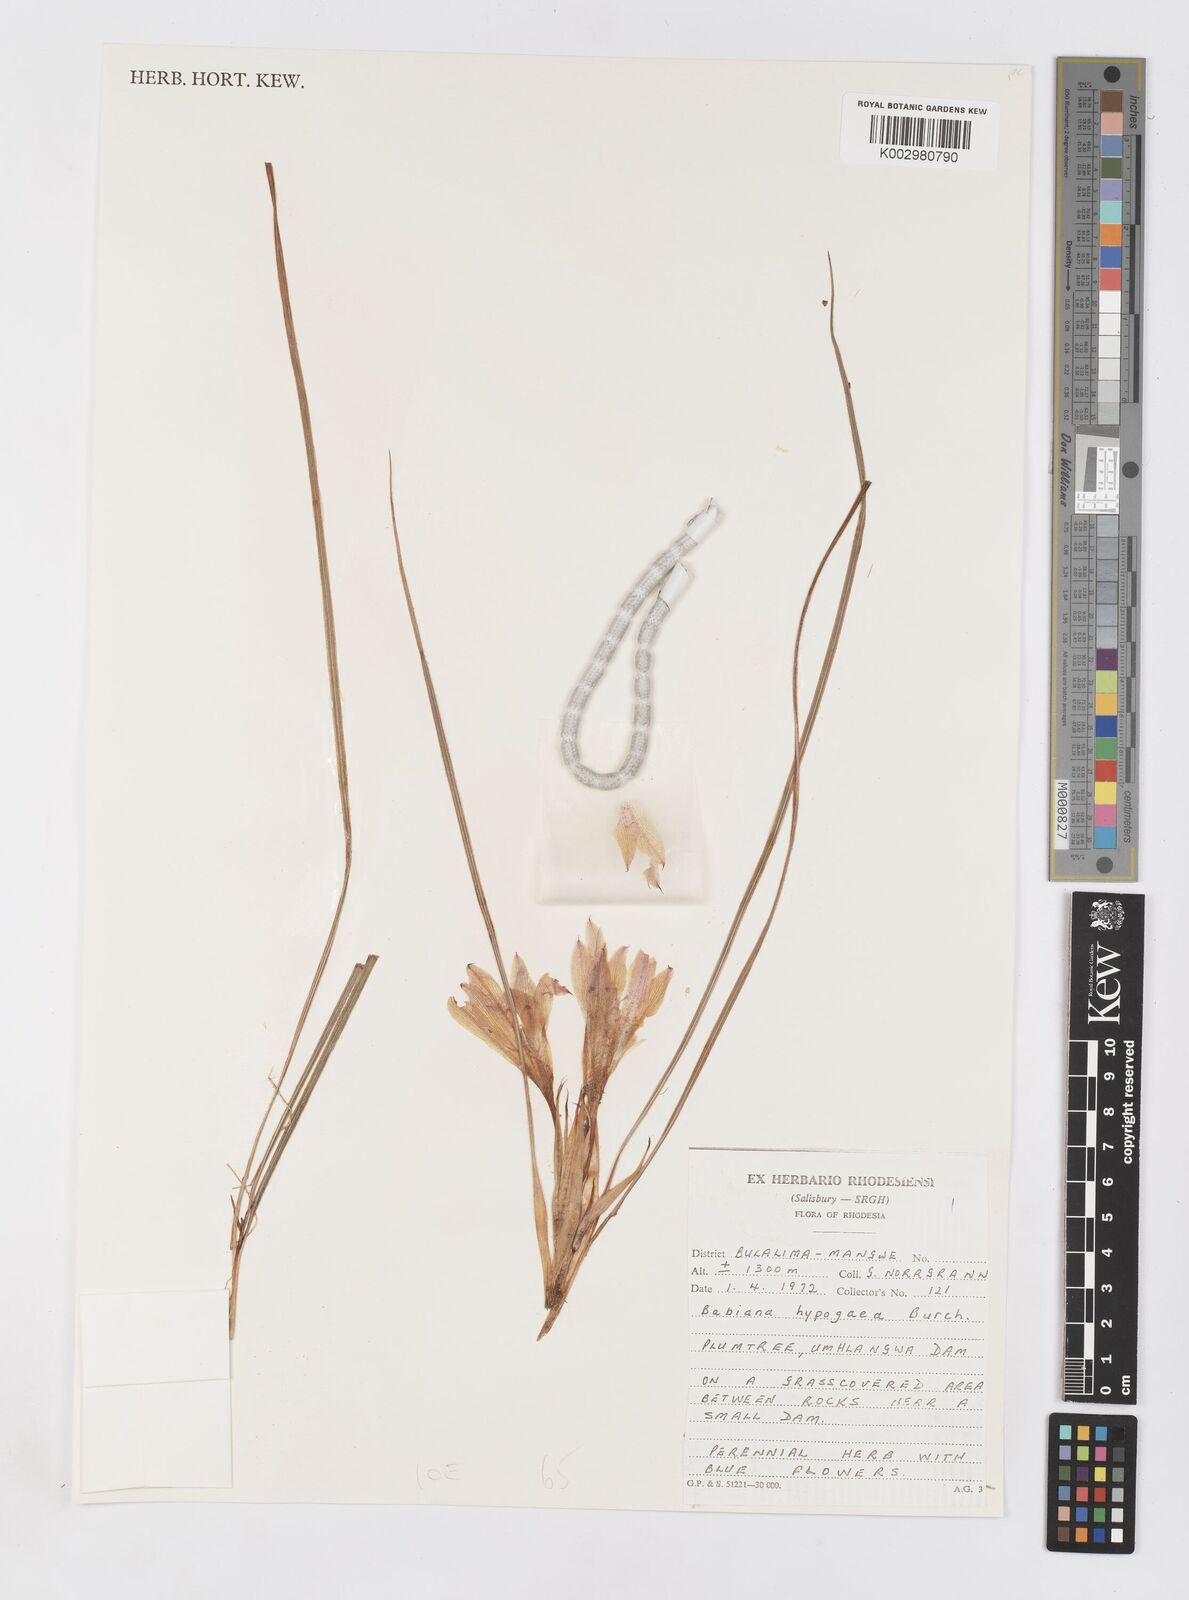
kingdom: Plantae
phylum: Tracheophyta
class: Liliopsida
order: Asparagales
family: Iridaceae
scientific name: Iridaceae
